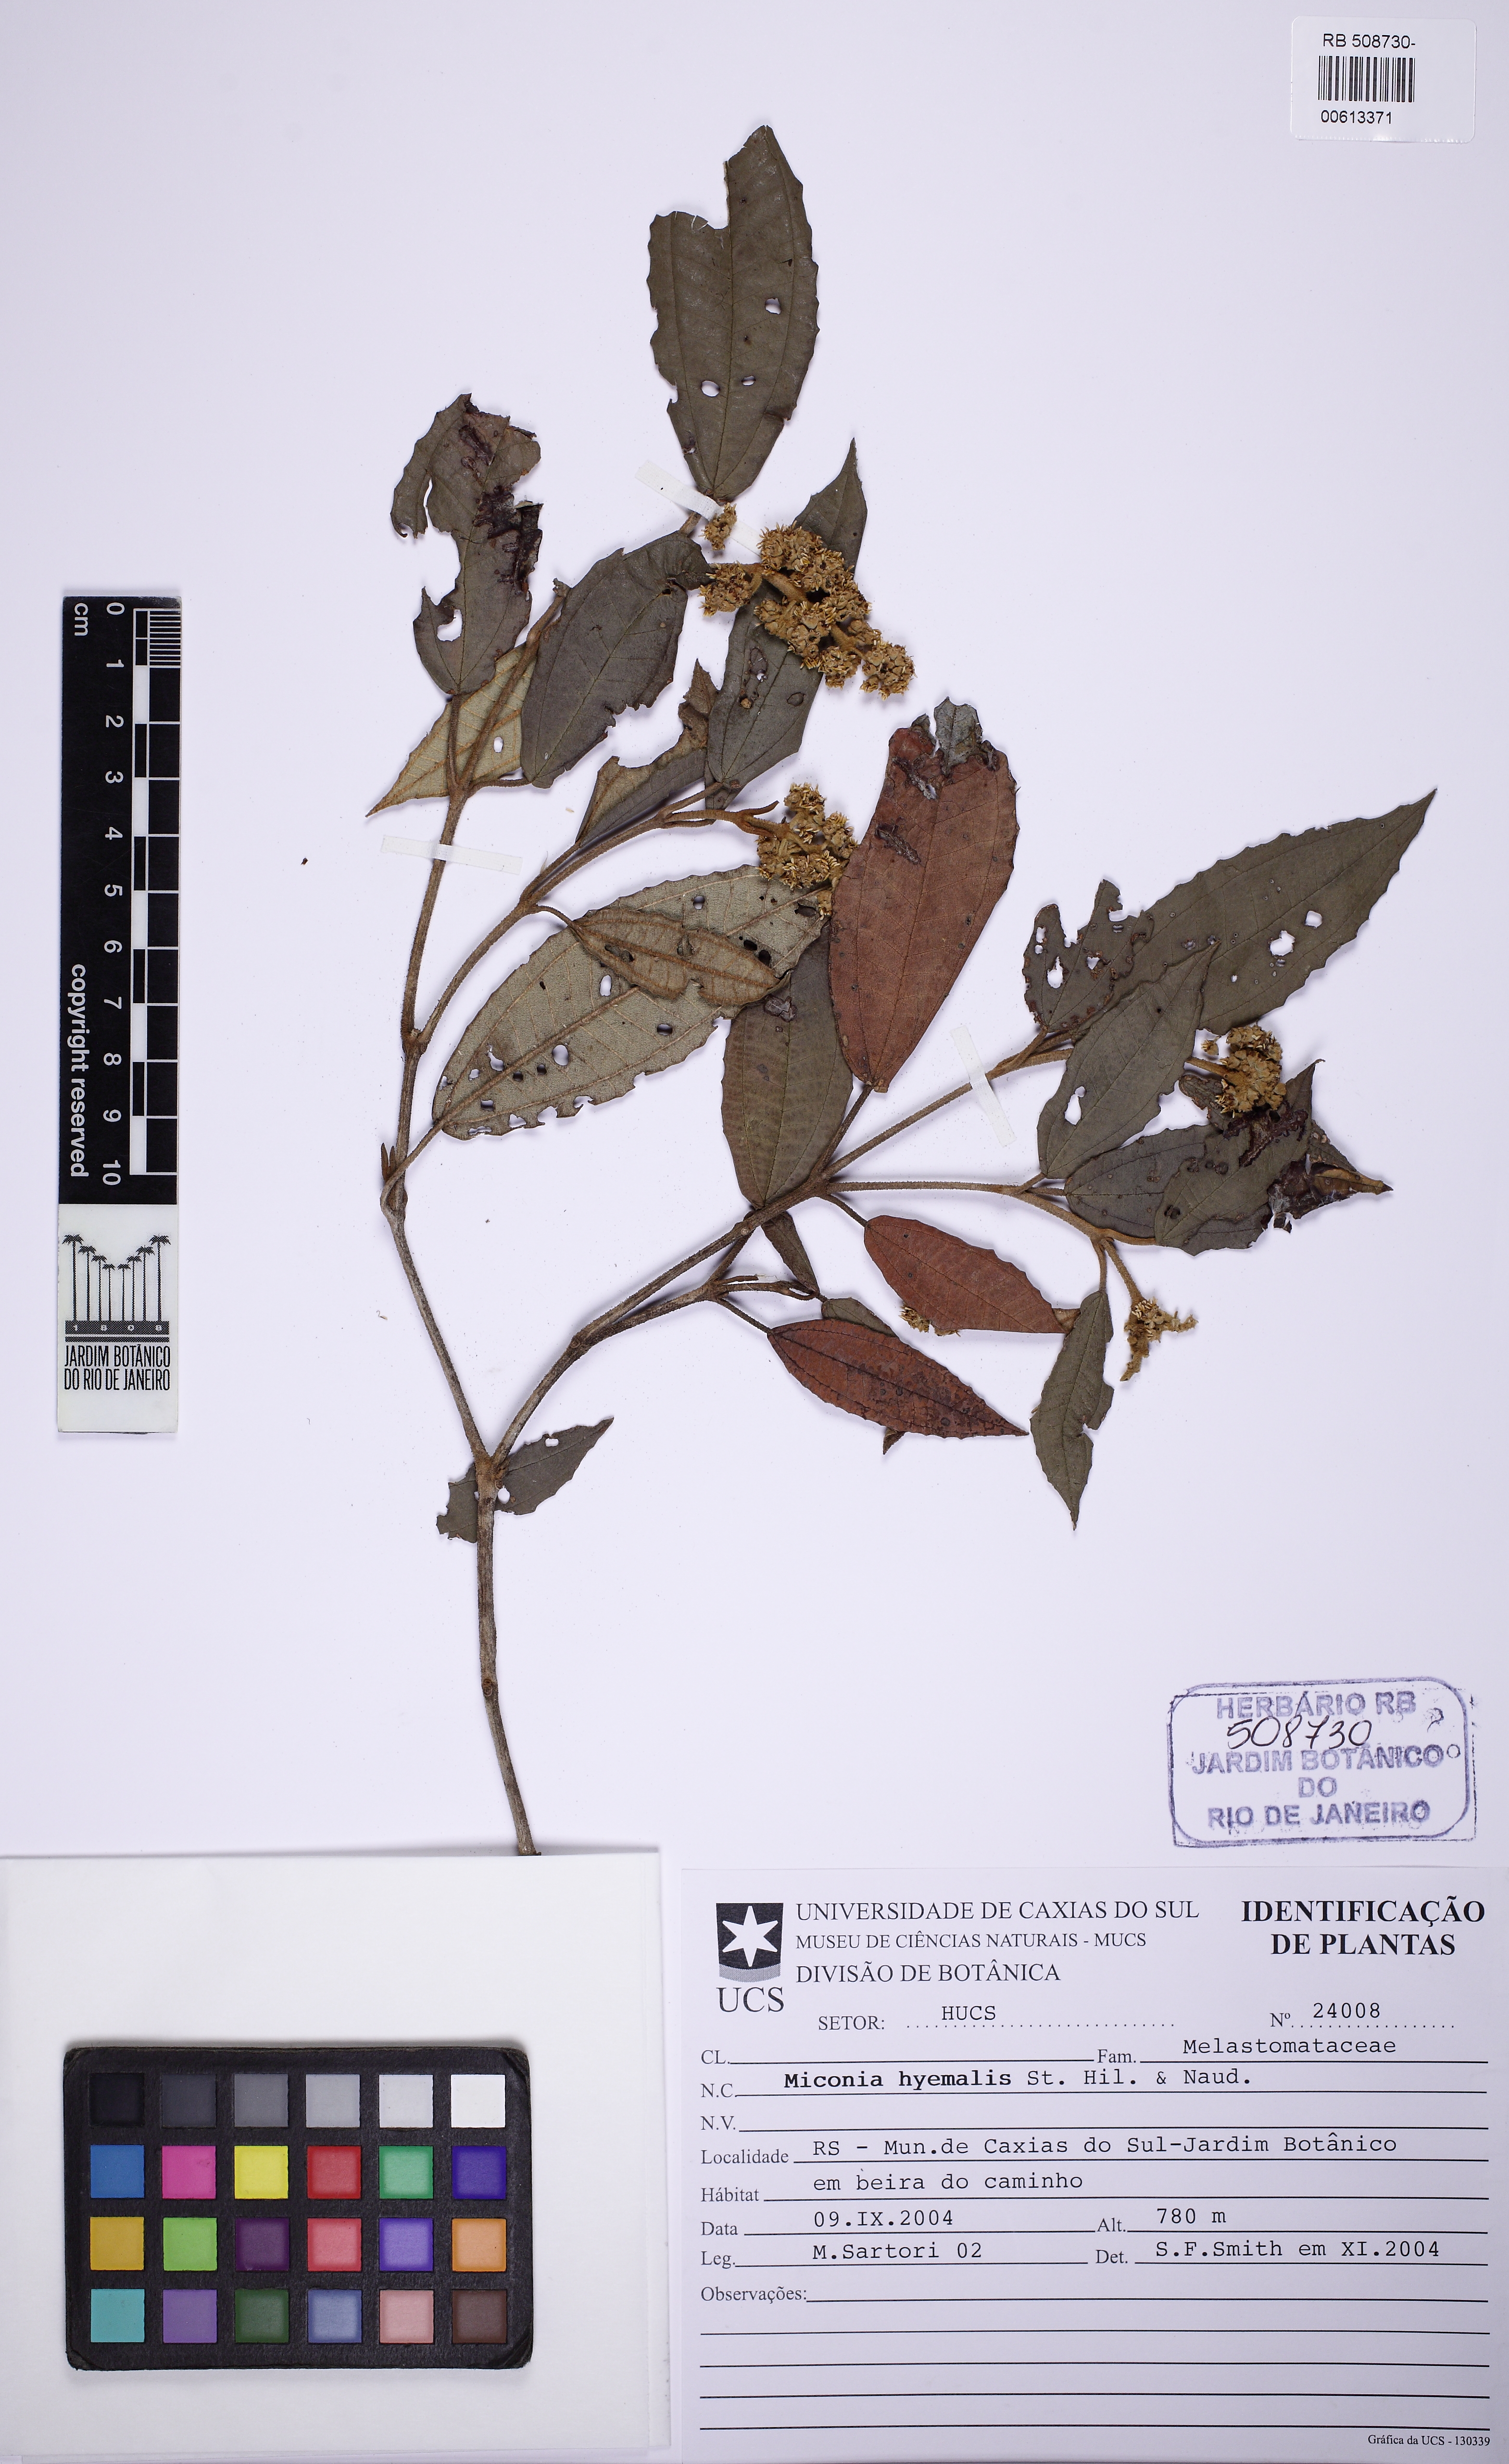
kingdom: Plantae
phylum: Tracheophyta
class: Magnoliopsida
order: Myrtales
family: Melastomataceae
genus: Miconia
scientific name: Miconia hyemalis
